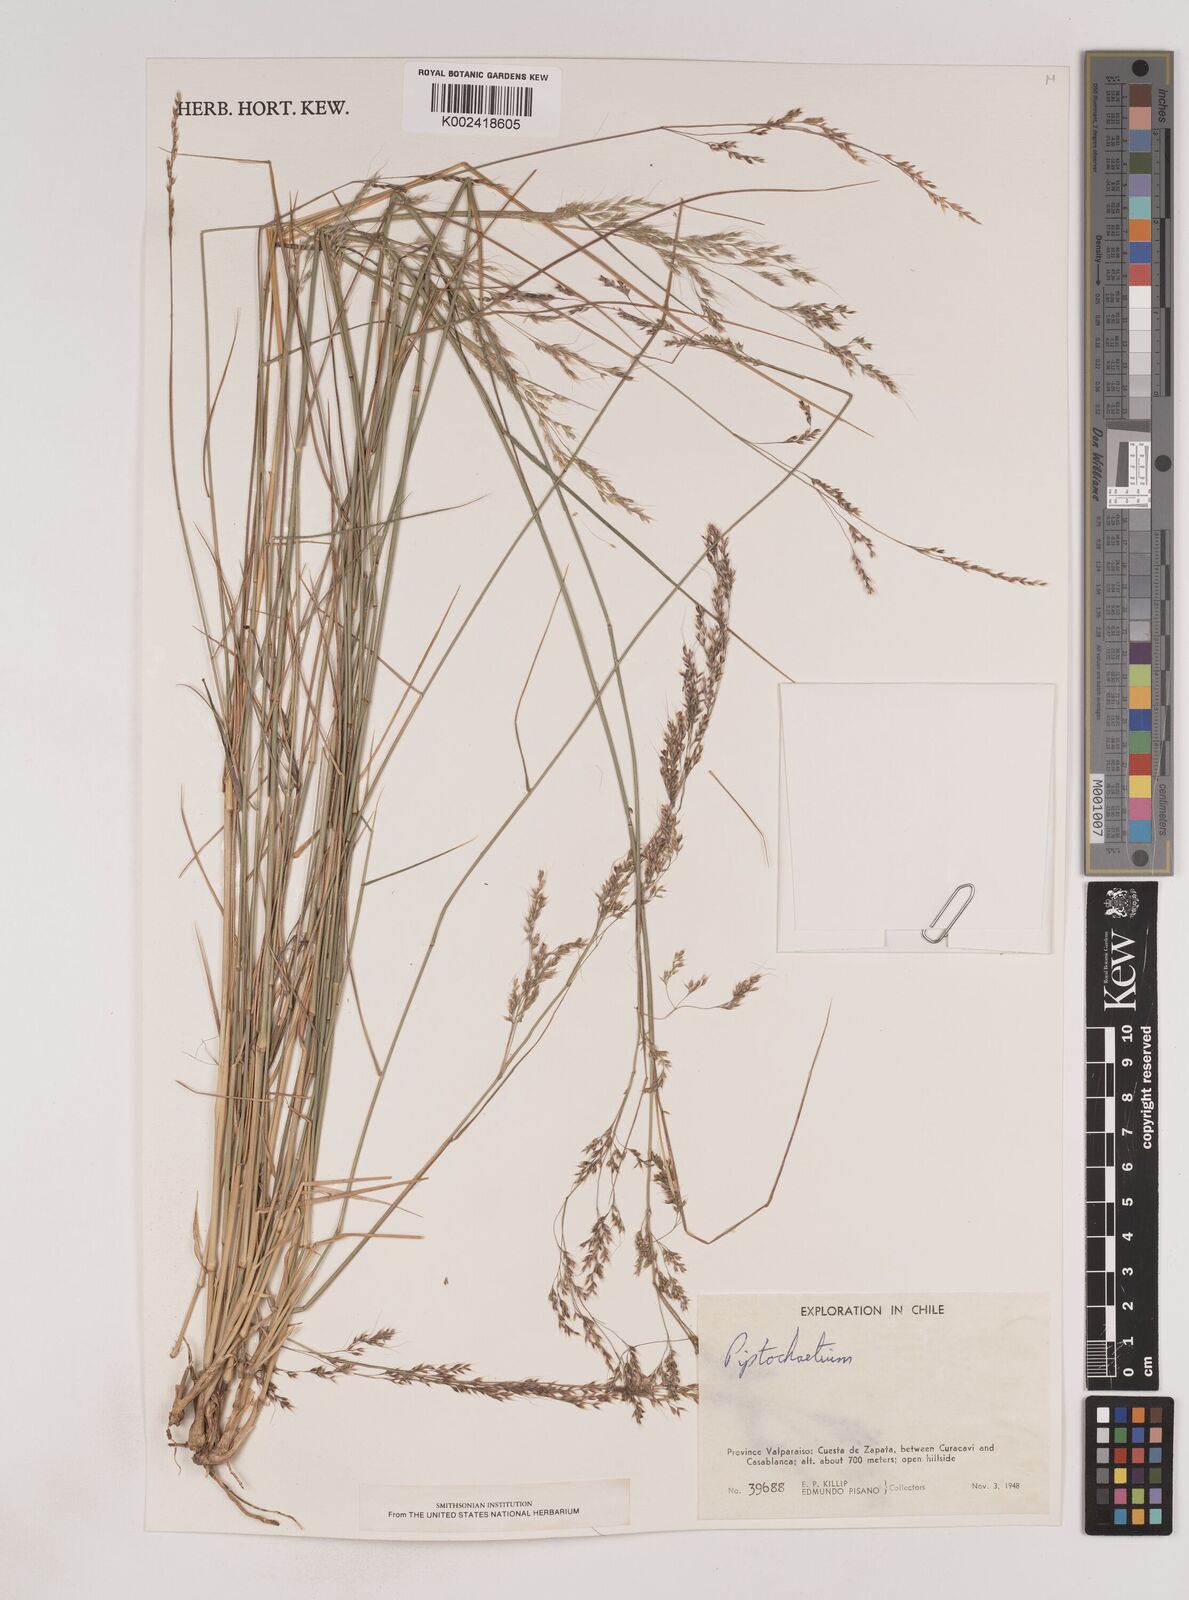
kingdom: Plantae
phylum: Tracheophyta
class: Liliopsida
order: Poales
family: Poaceae
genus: Piptochaetium
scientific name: Piptochaetium
